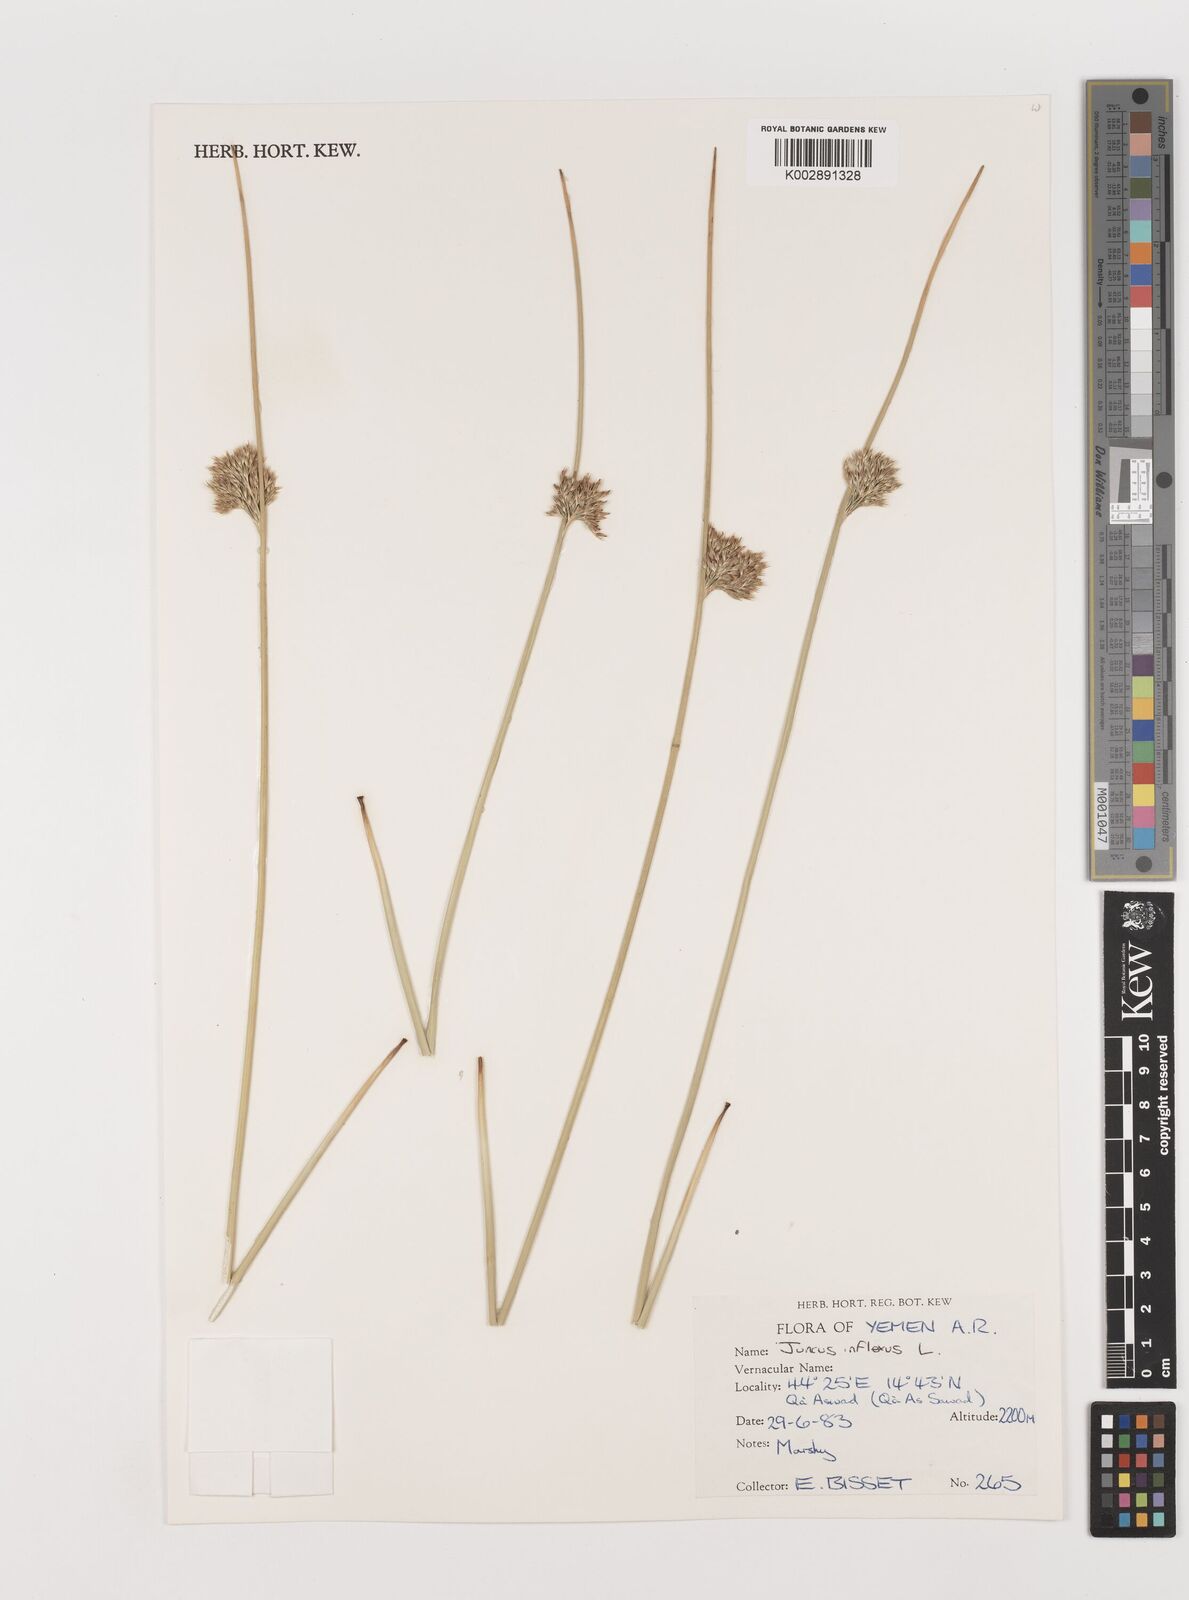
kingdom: Plantae
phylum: Tracheophyta
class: Liliopsida
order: Poales
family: Juncaceae
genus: Juncus
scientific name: Juncus inflexus
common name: Hard rush
